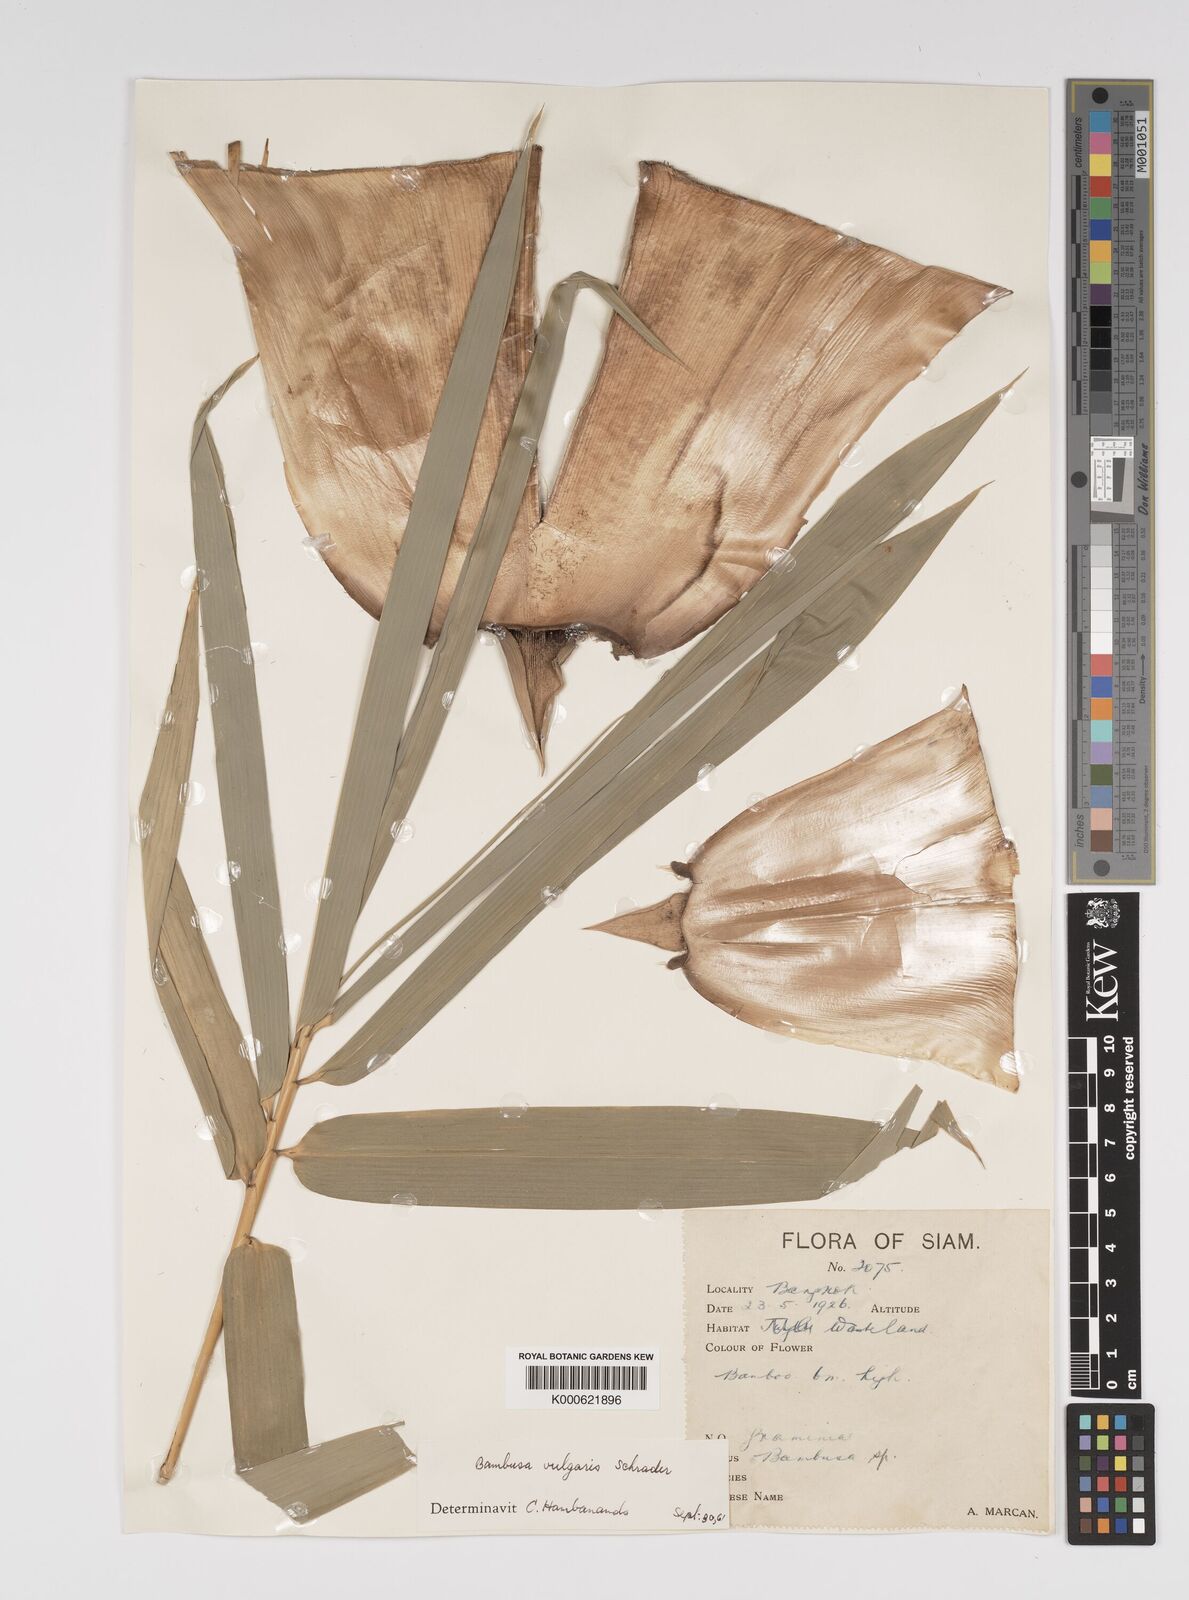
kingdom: Plantae
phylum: Tracheophyta
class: Liliopsida
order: Poales
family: Poaceae
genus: Bambusa
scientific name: Bambusa
